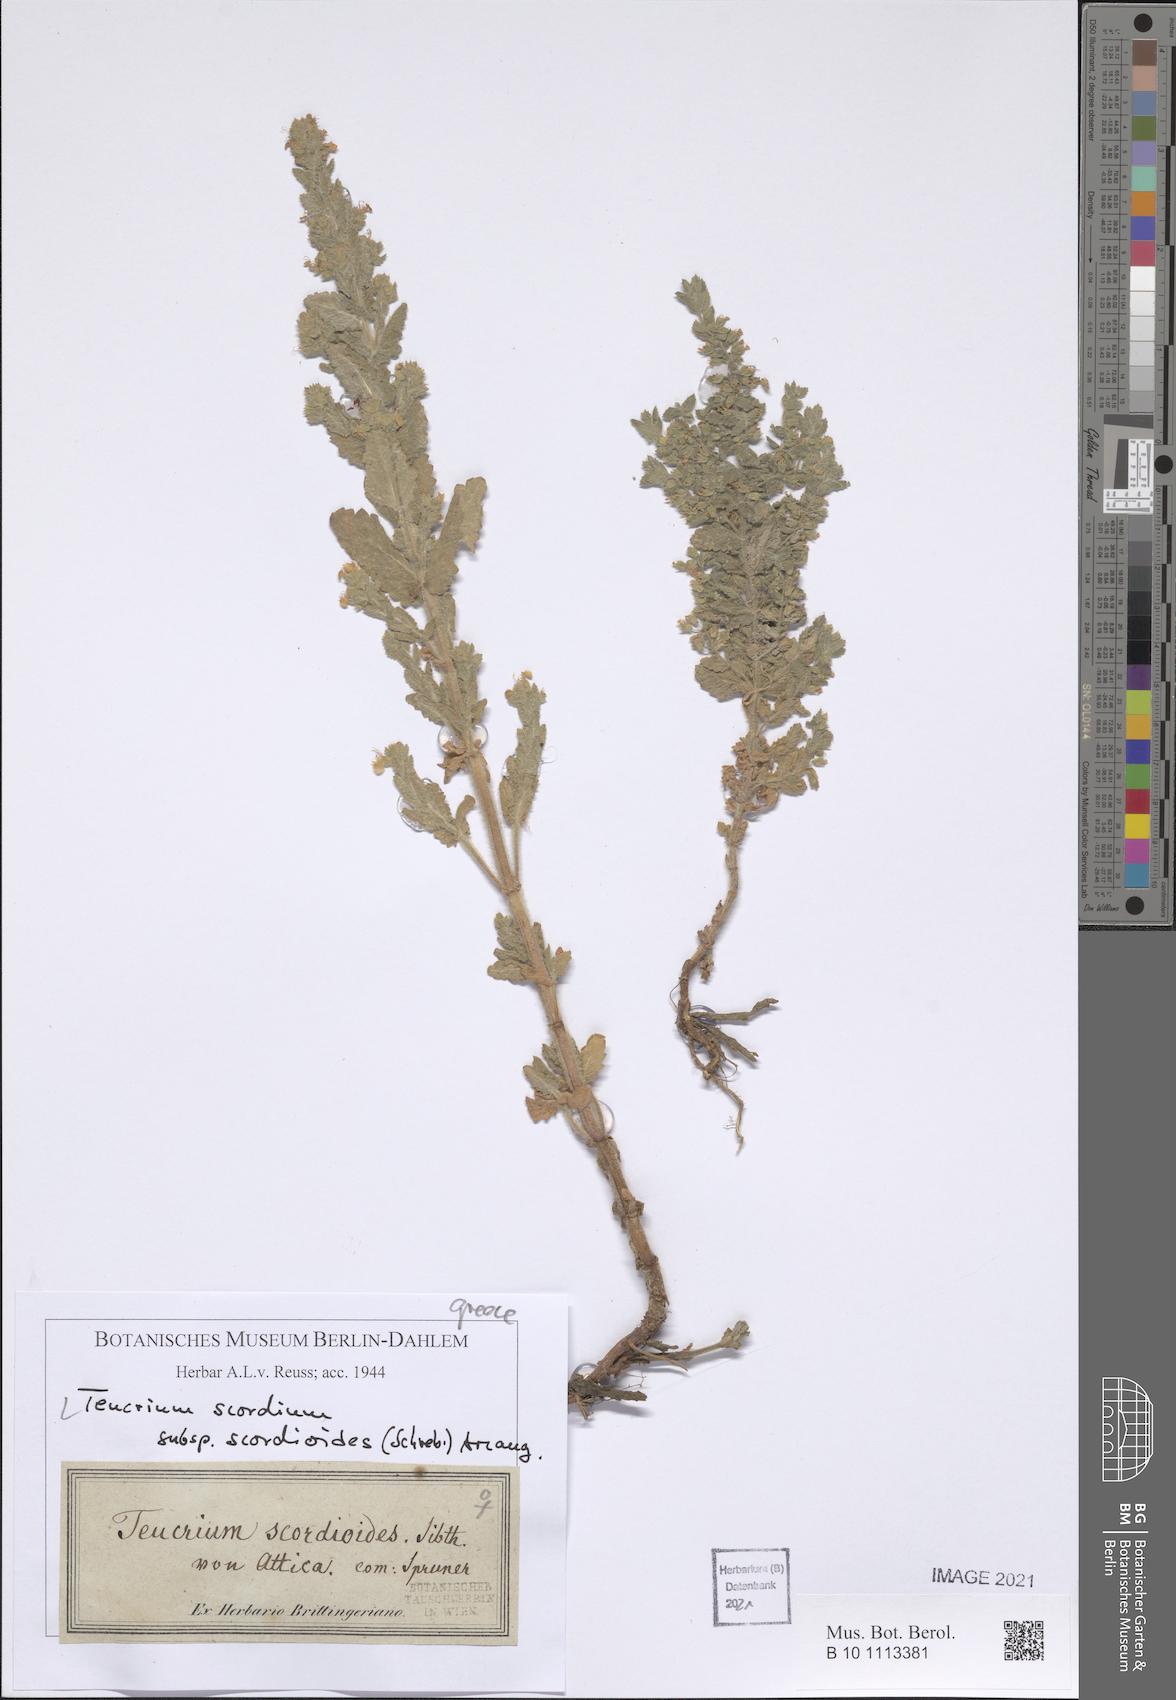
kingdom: Plantae
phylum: Tracheophyta
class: Magnoliopsida
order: Lamiales
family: Lamiaceae
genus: Teucrium
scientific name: Teucrium scordium
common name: Water germander
